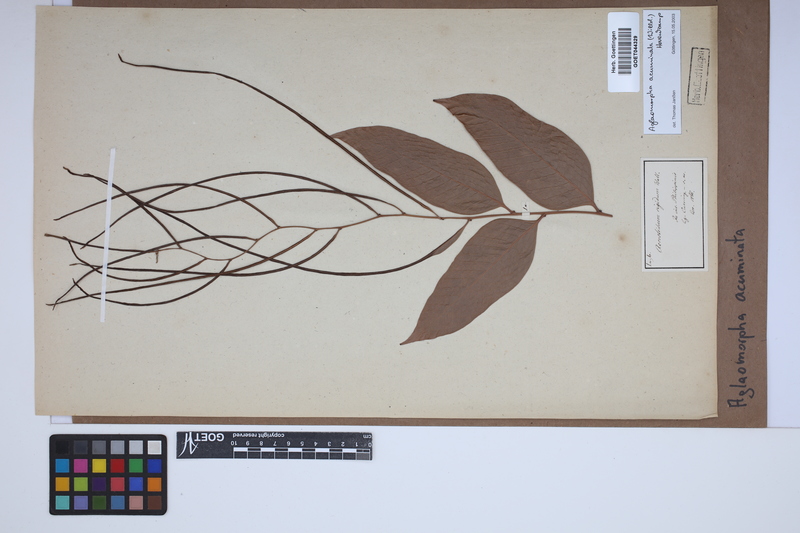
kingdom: Plantae
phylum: Tracheophyta
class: Polypodiopsida
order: Polypodiales
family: Polypodiaceae
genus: Drynaria
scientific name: Drynaria speciosa
